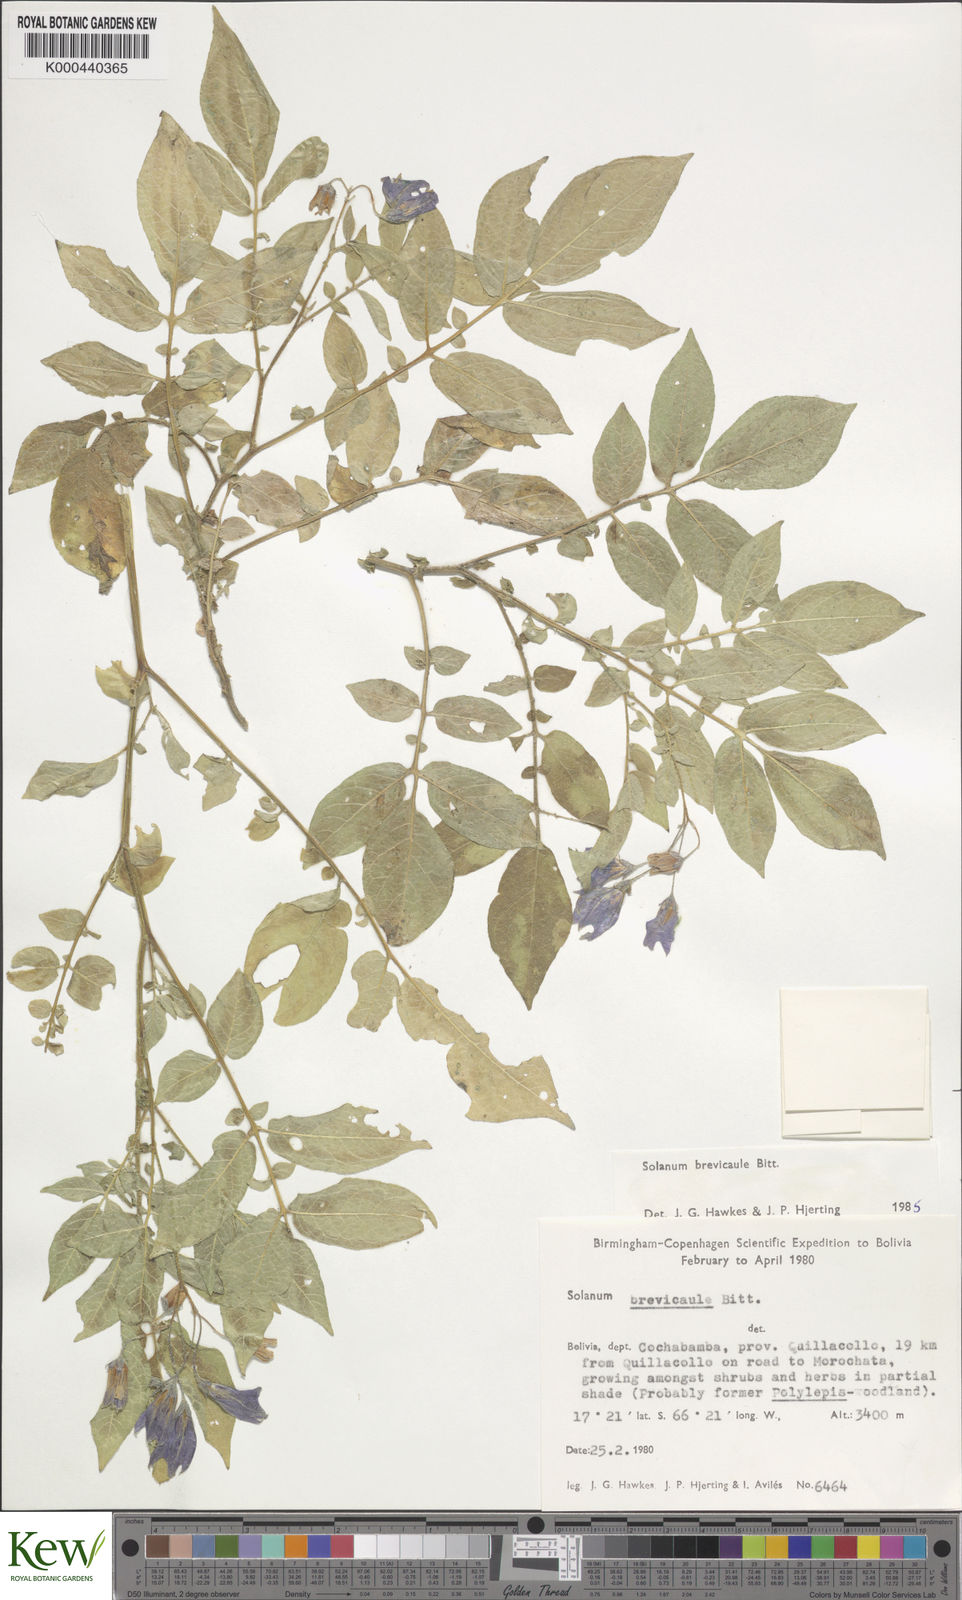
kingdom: Plantae
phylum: Tracheophyta
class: Magnoliopsida
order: Solanales
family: Solanaceae
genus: Solanum
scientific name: Solanum brevicaule
